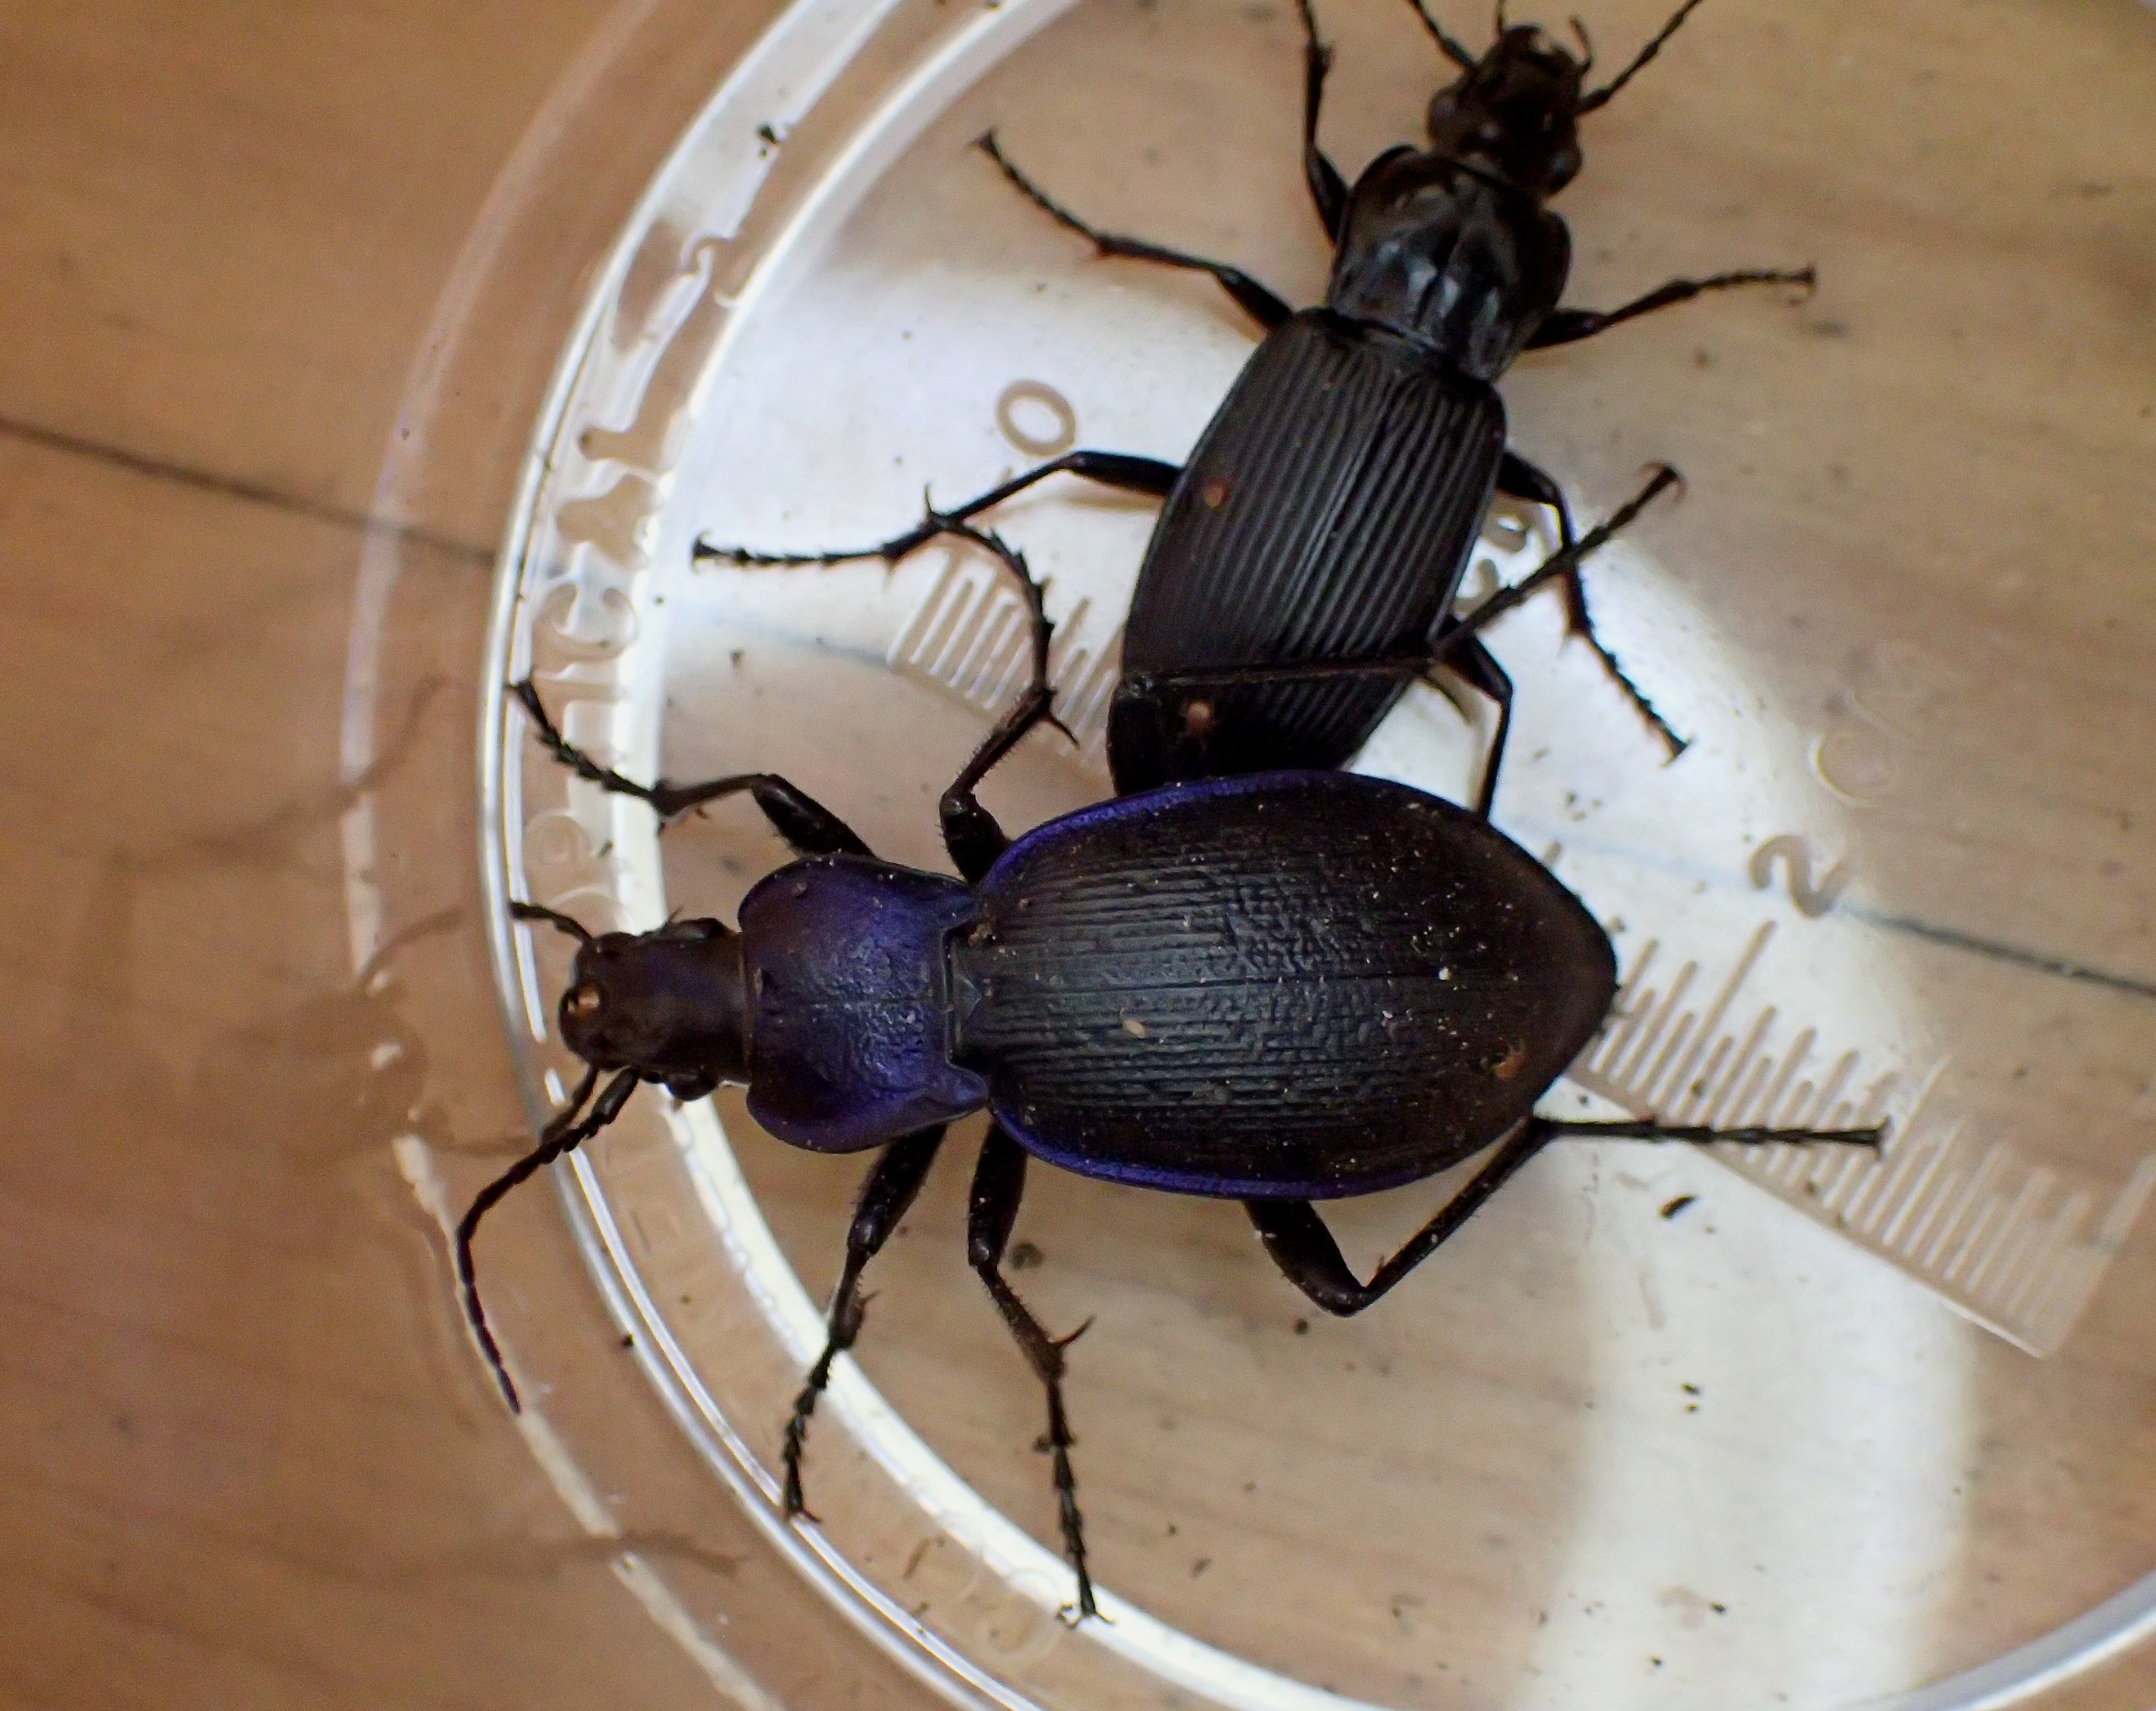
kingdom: Animalia
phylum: Arthropoda
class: Insecta
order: Coleoptera
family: Carabidae
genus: Carabus
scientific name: Carabus problematicus
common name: Jysk løber
